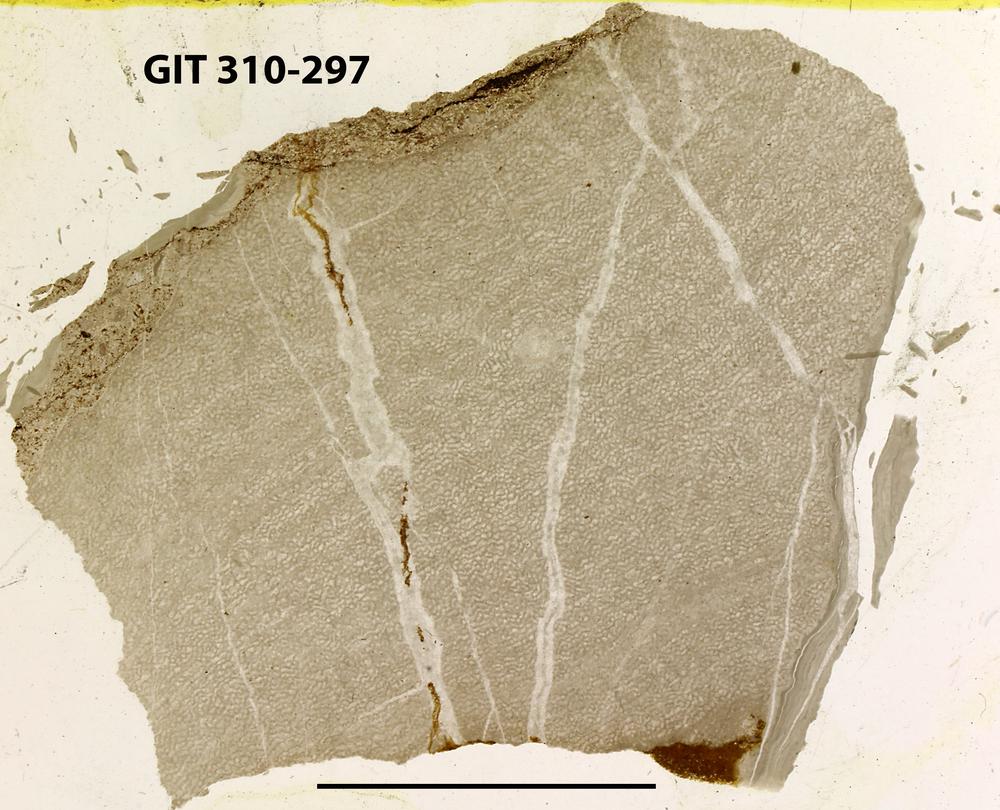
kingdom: Animalia
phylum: Porifera
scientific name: Porifera
